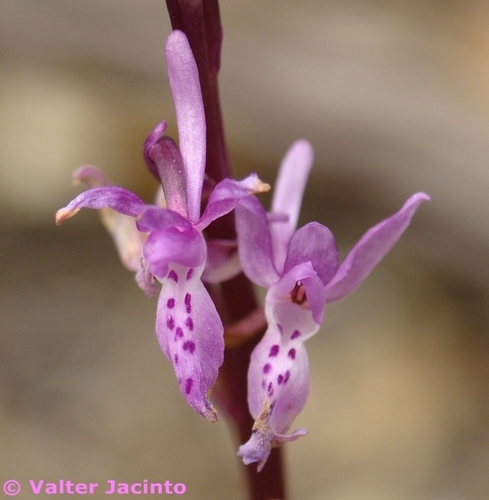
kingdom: Plantae
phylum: Tracheophyta
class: Liliopsida
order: Asparagales
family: Orchidaceae
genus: Orchis
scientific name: Orchis olbiensis
